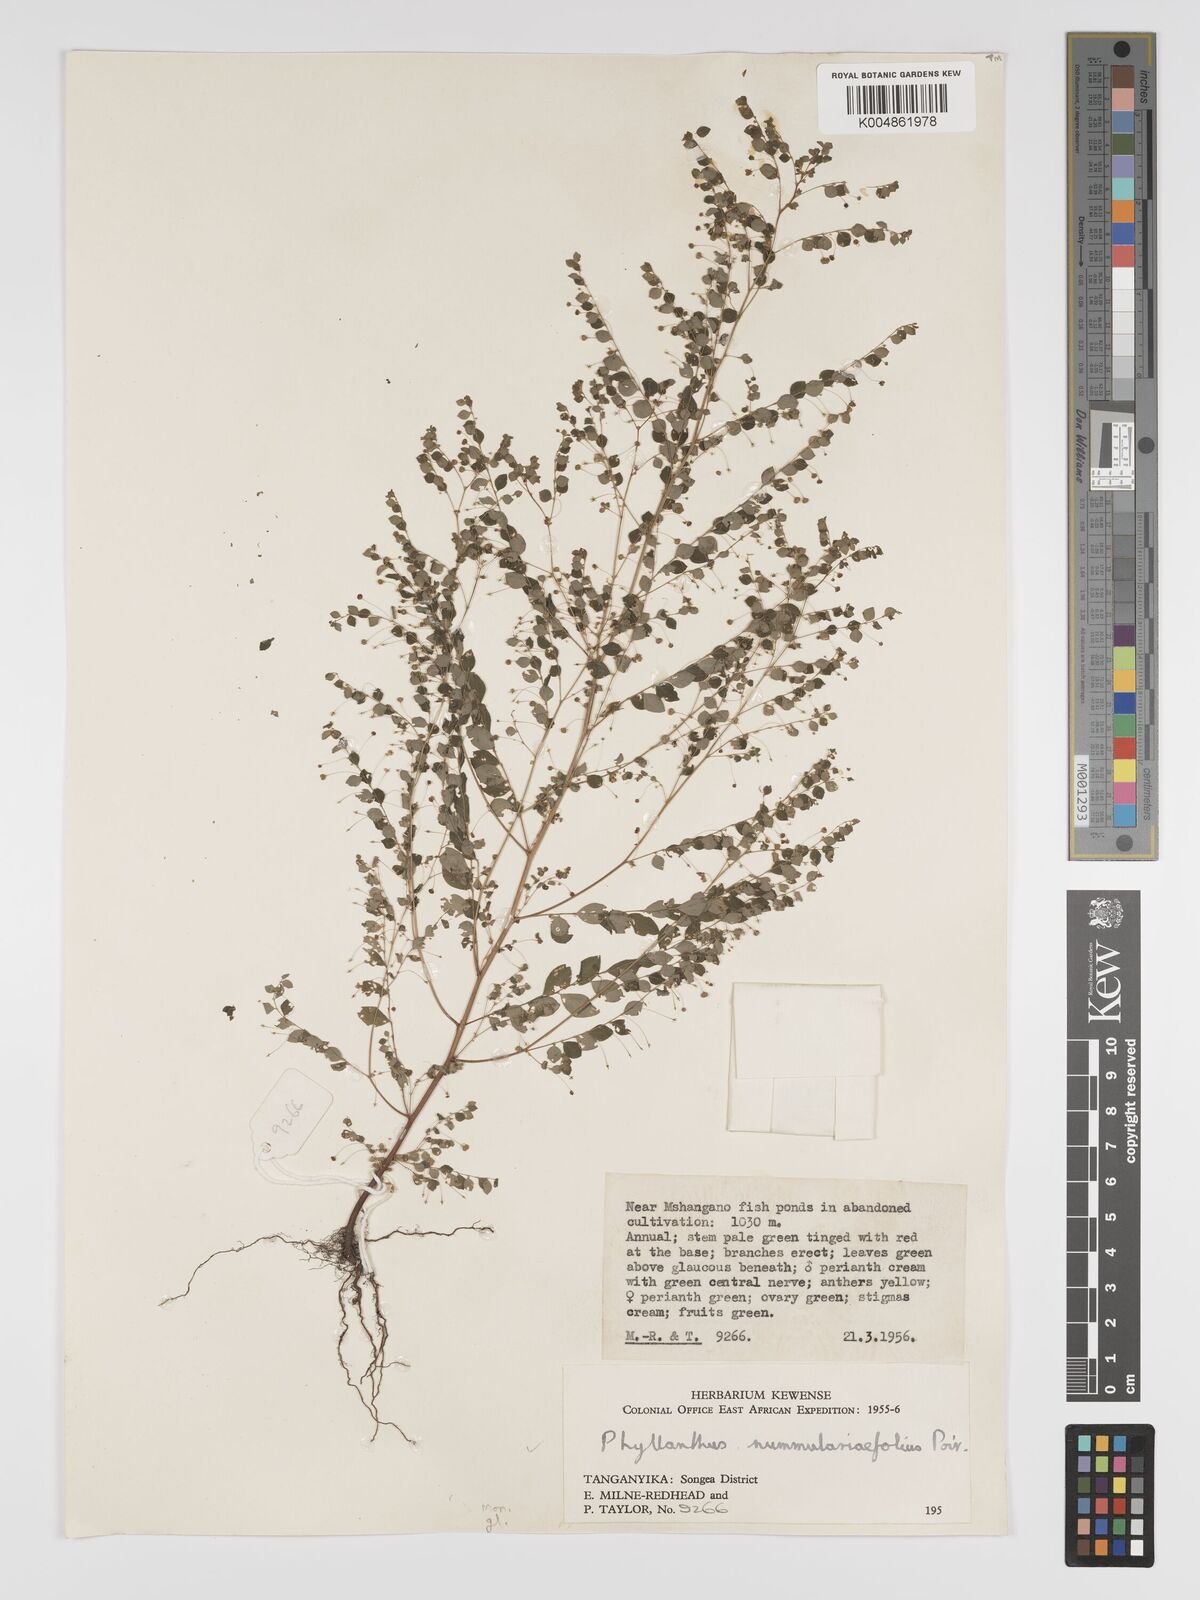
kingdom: Plantae
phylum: Tracheophyta
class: Magnoliopsida
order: Malpighiales
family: Phyllanthaceae
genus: Phyllanthus
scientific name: Phyllanthus nummulariifolius
